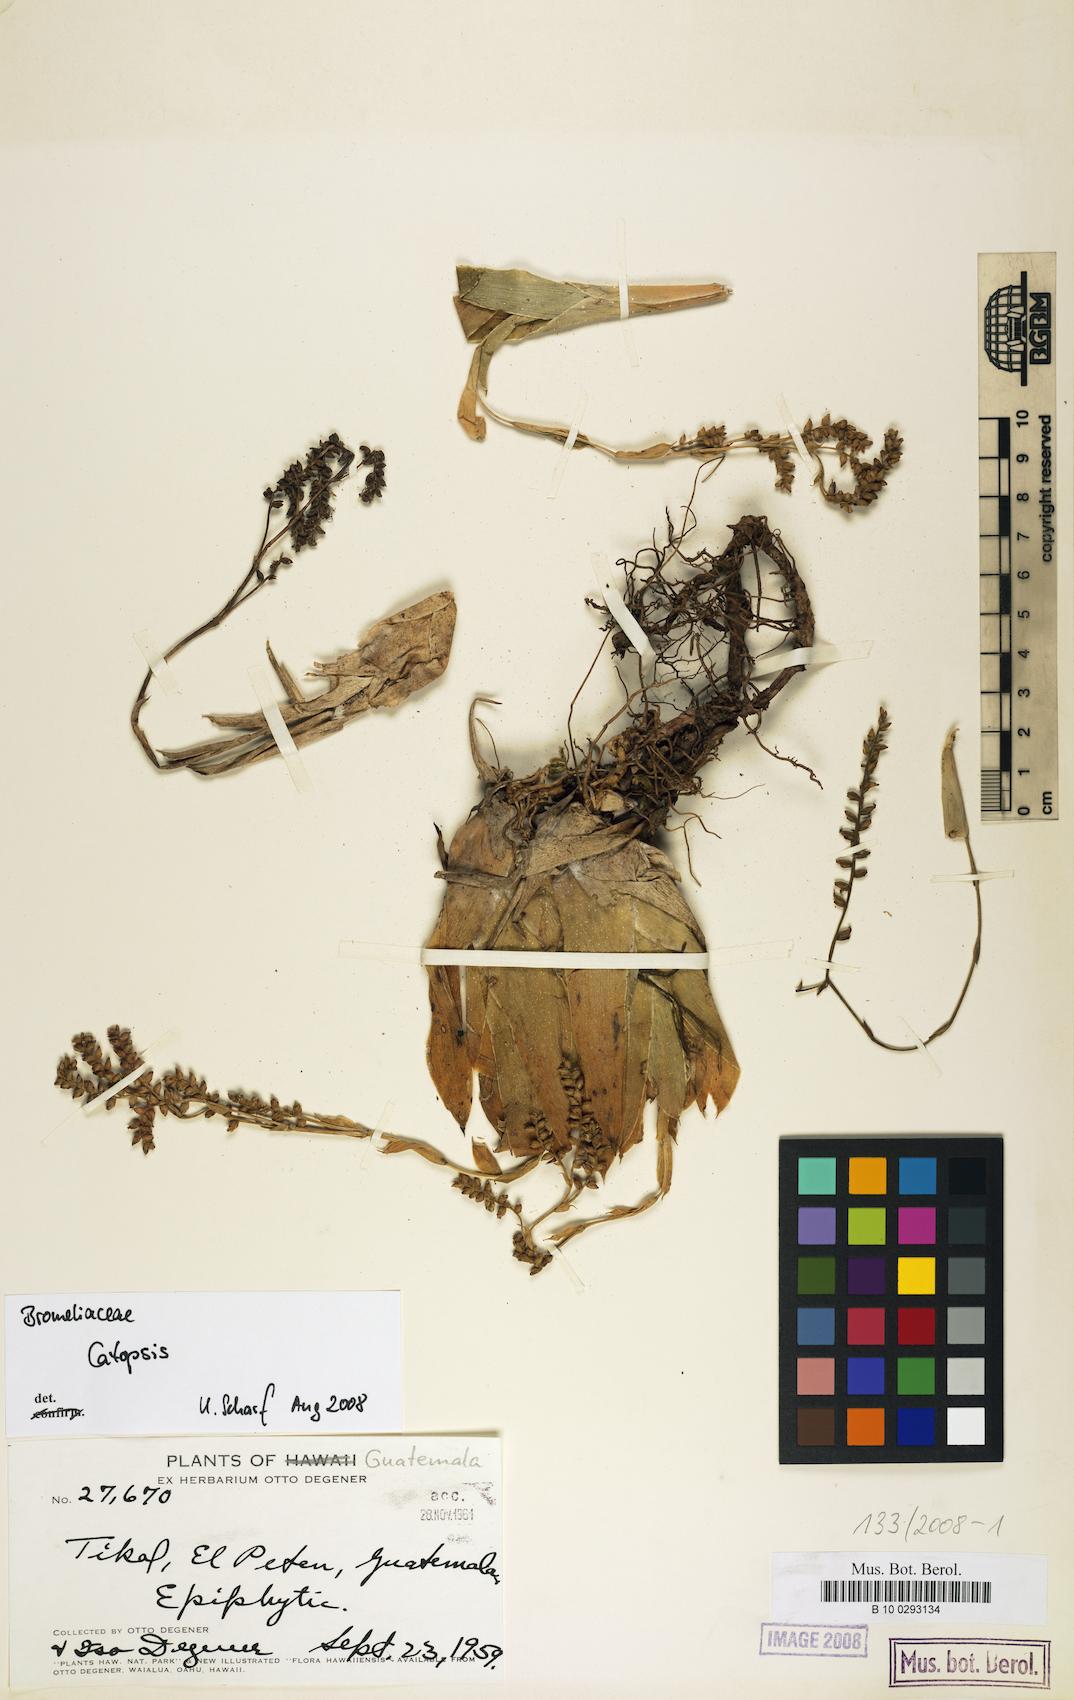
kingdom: Plantae
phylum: Tracheophyta
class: Liliopsida
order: Poales
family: Bromeliaceae
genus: Catopsis
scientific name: Catopsis
